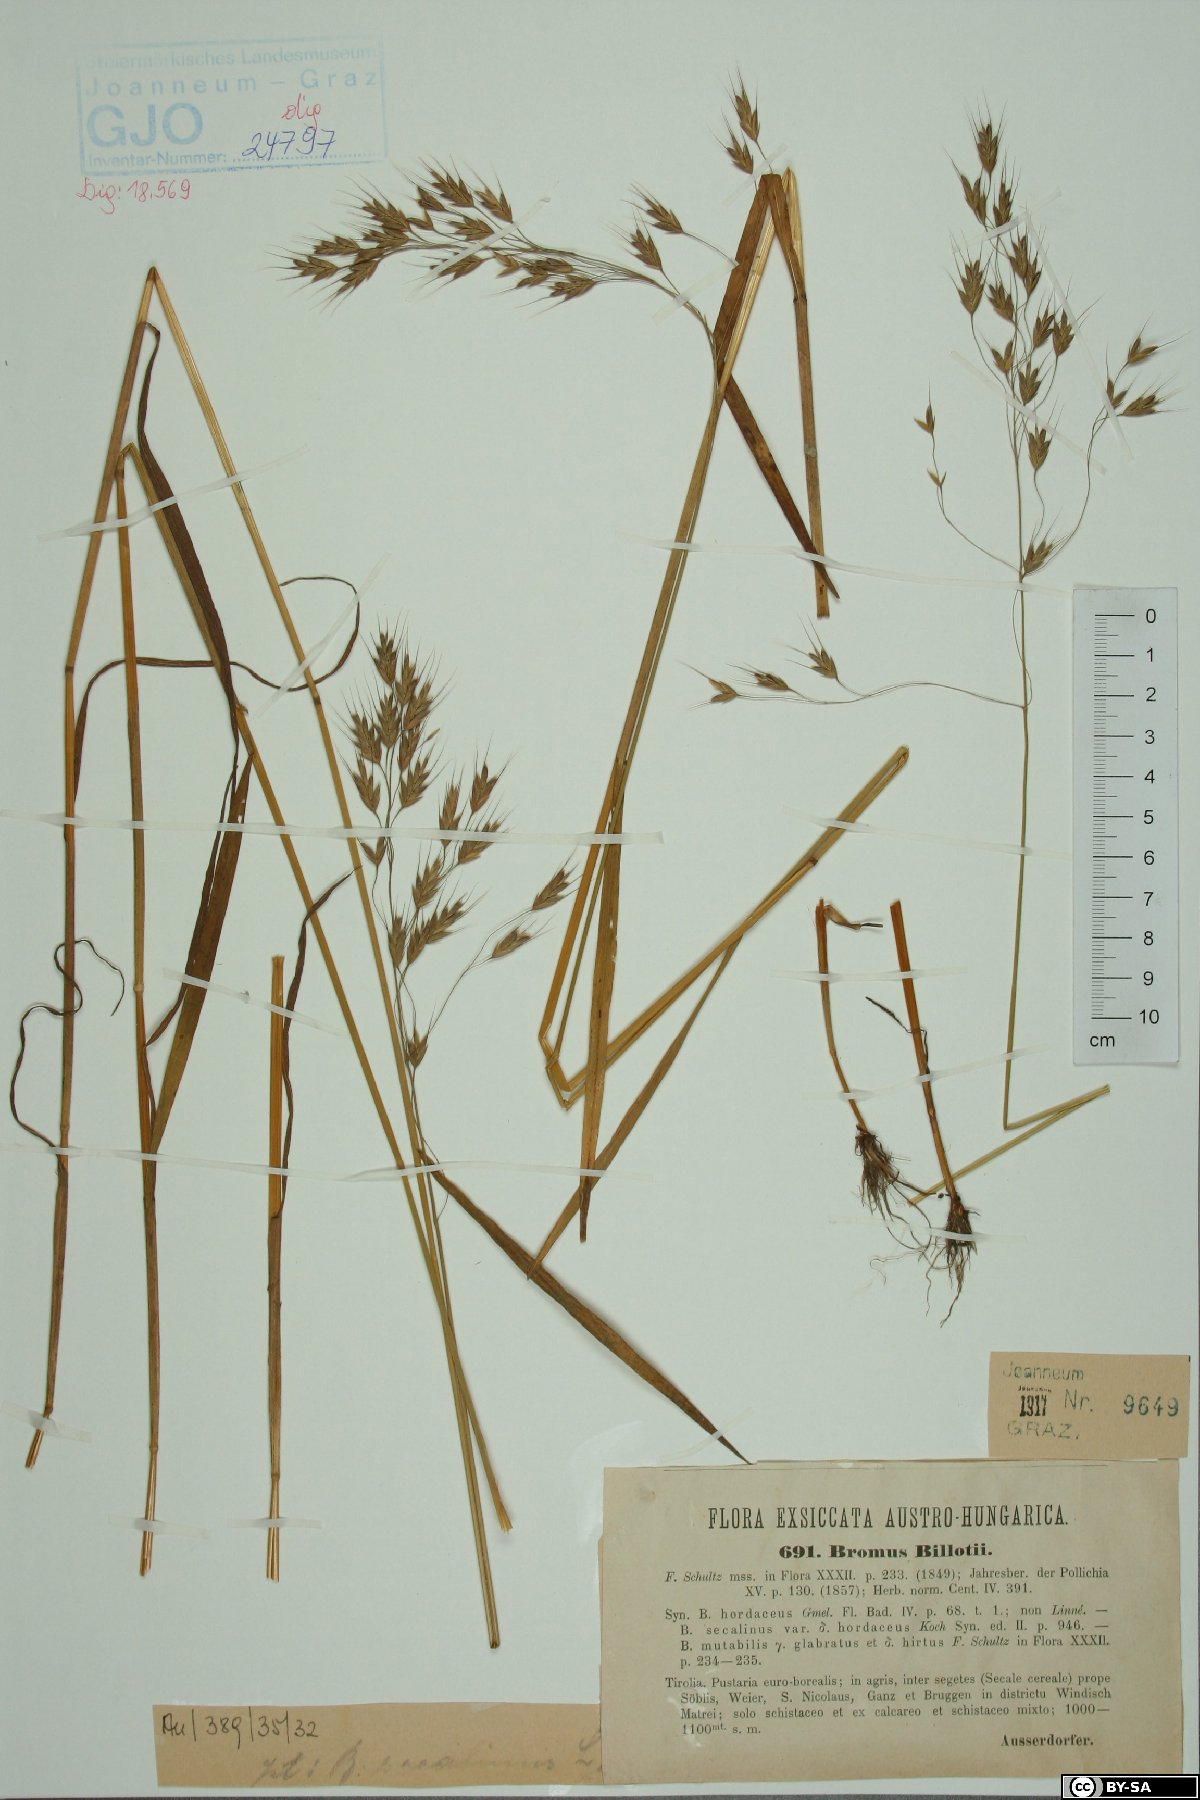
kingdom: Plantae
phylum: Tracheophyta
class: Liliopsida
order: Poales
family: Poaceae
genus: Bromus
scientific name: Bromus arvensis
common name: Field brome
